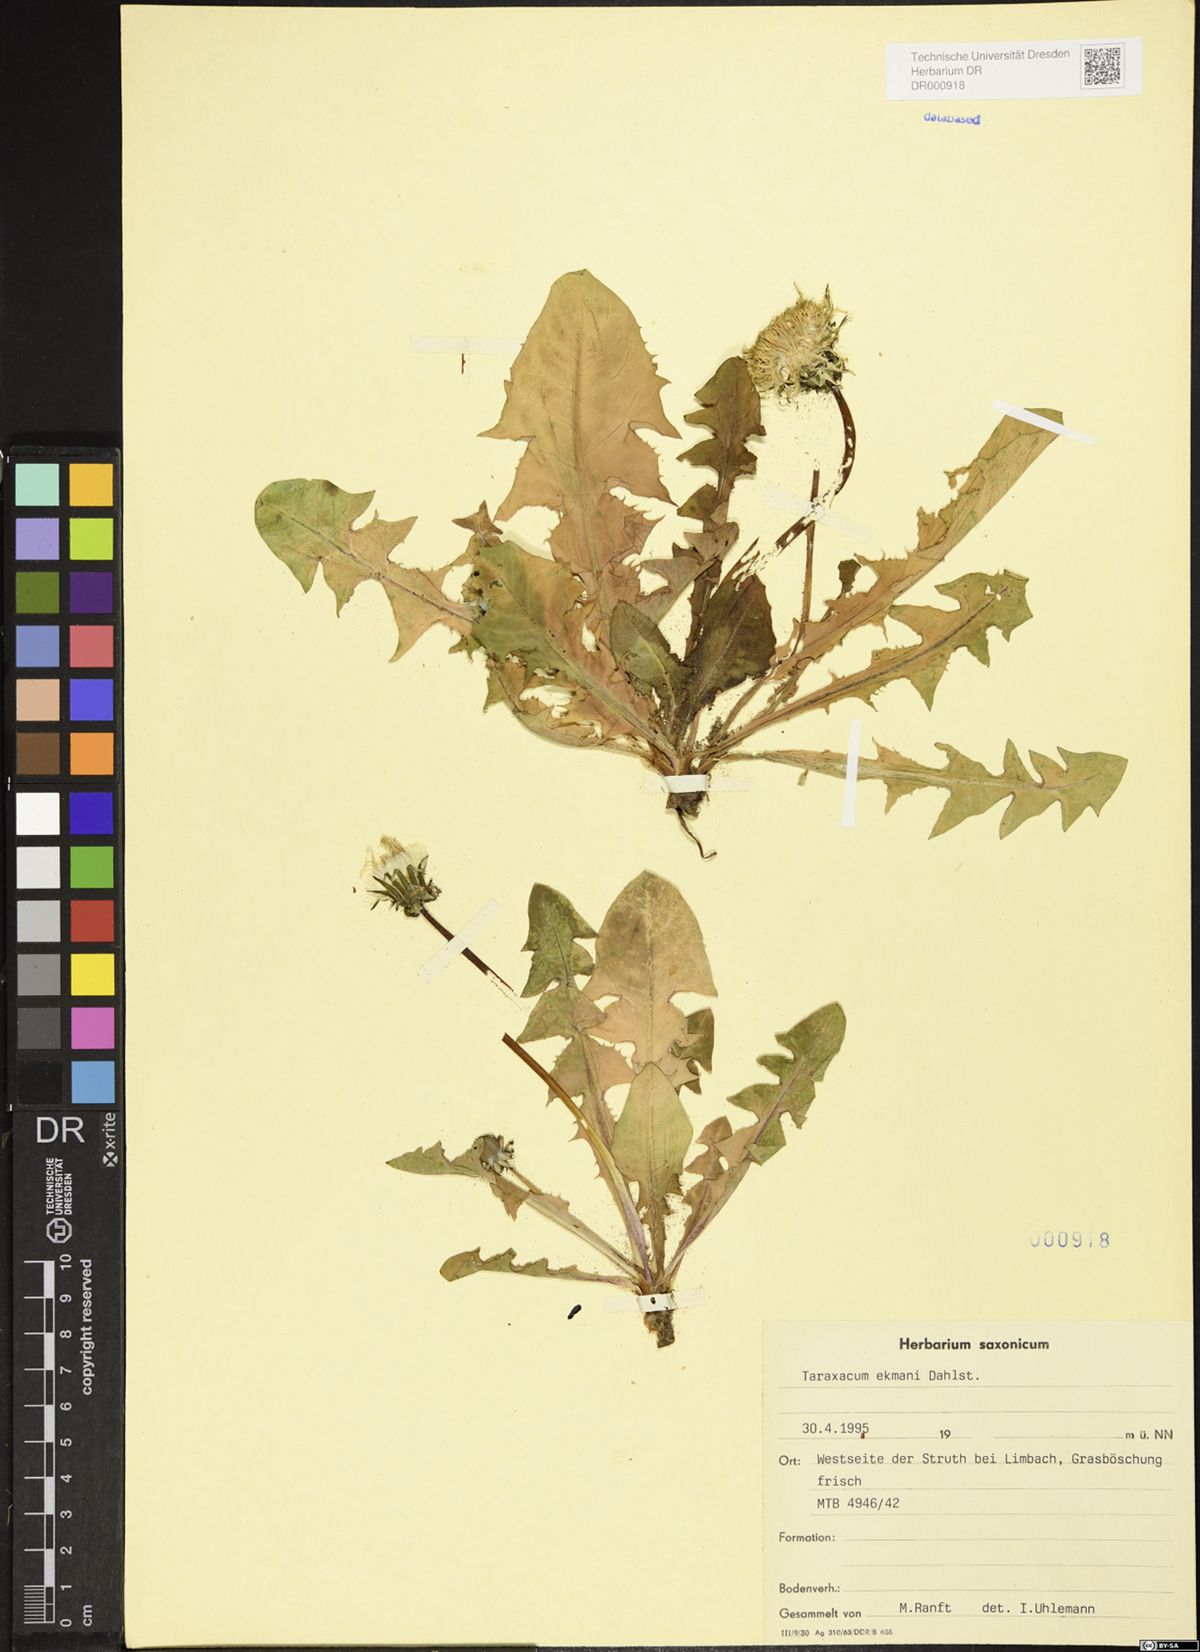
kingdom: Plantae
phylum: Tracheophyta
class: Magnoliopsida
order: Asterales
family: Asteraceae
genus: Taraxacum
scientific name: Taraxacum ekmanii
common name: Ekman's dandelion
